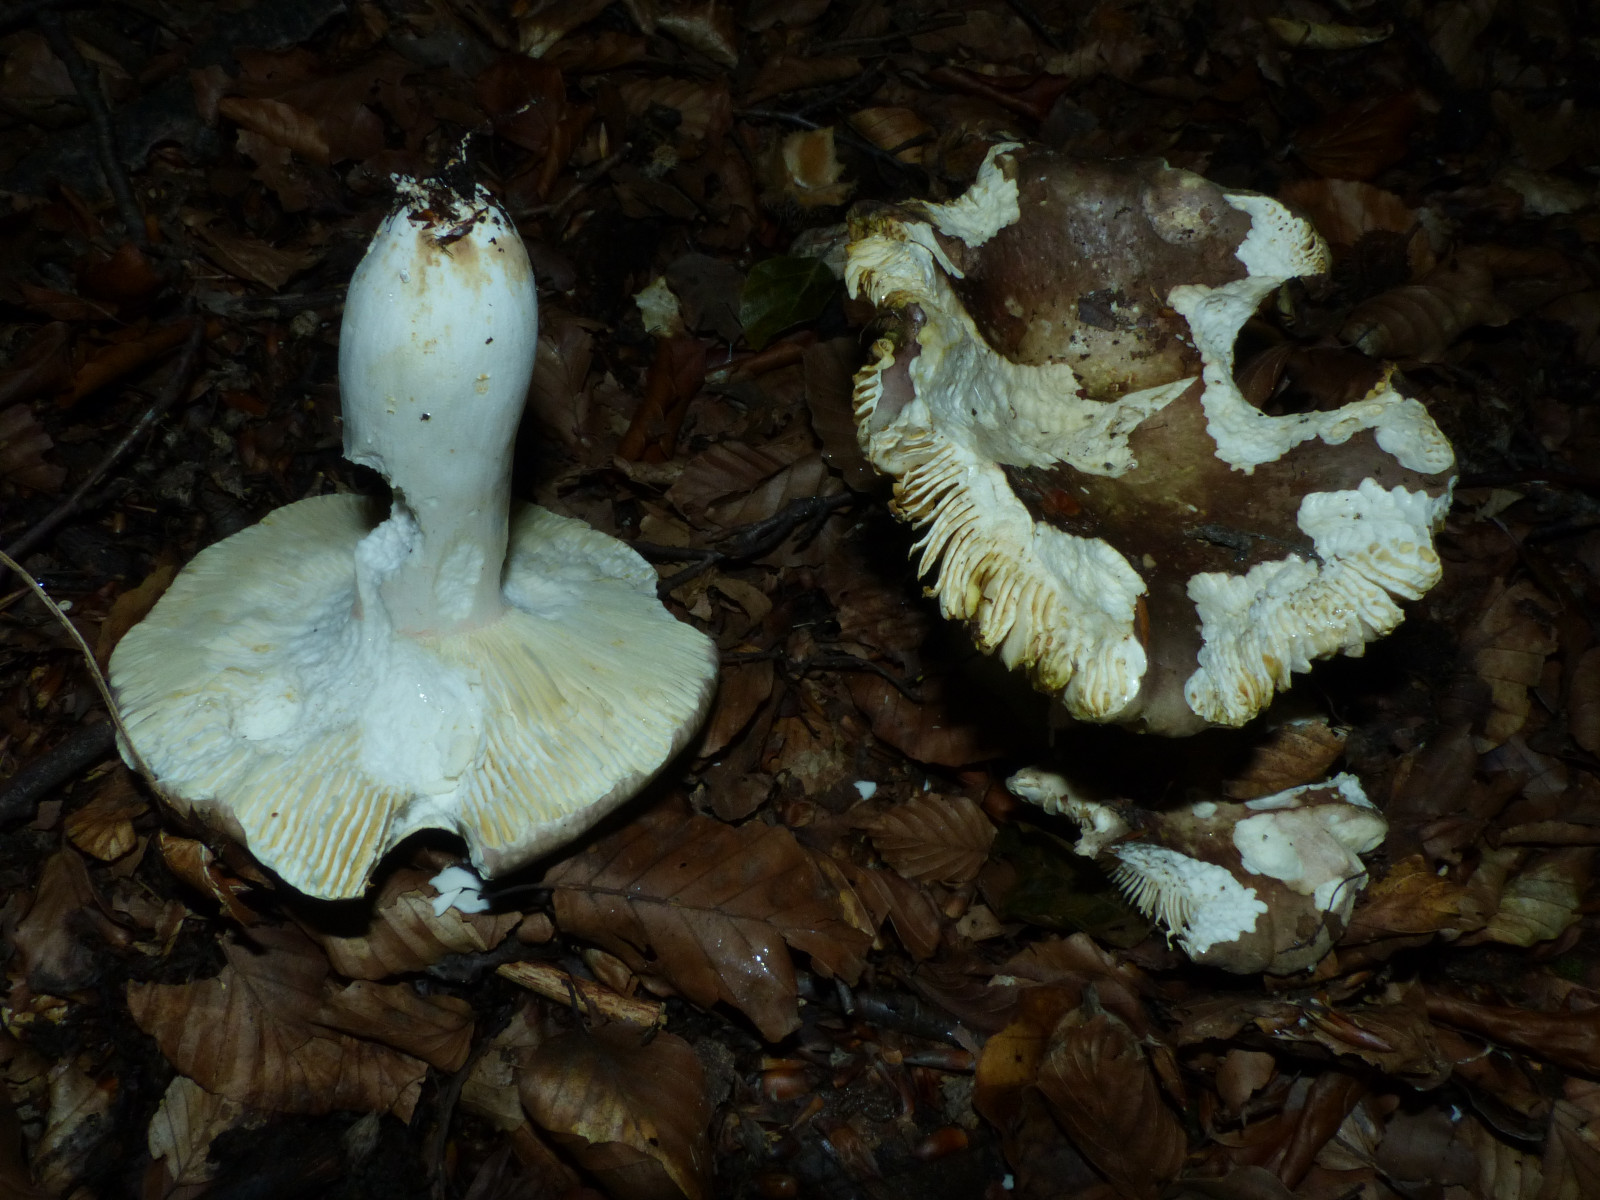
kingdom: Fungi
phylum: Basidiomycota
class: Agaricomycetes
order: Russulales
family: Russulaceae
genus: Russula
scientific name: Russula olivacea
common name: stor skørhat
